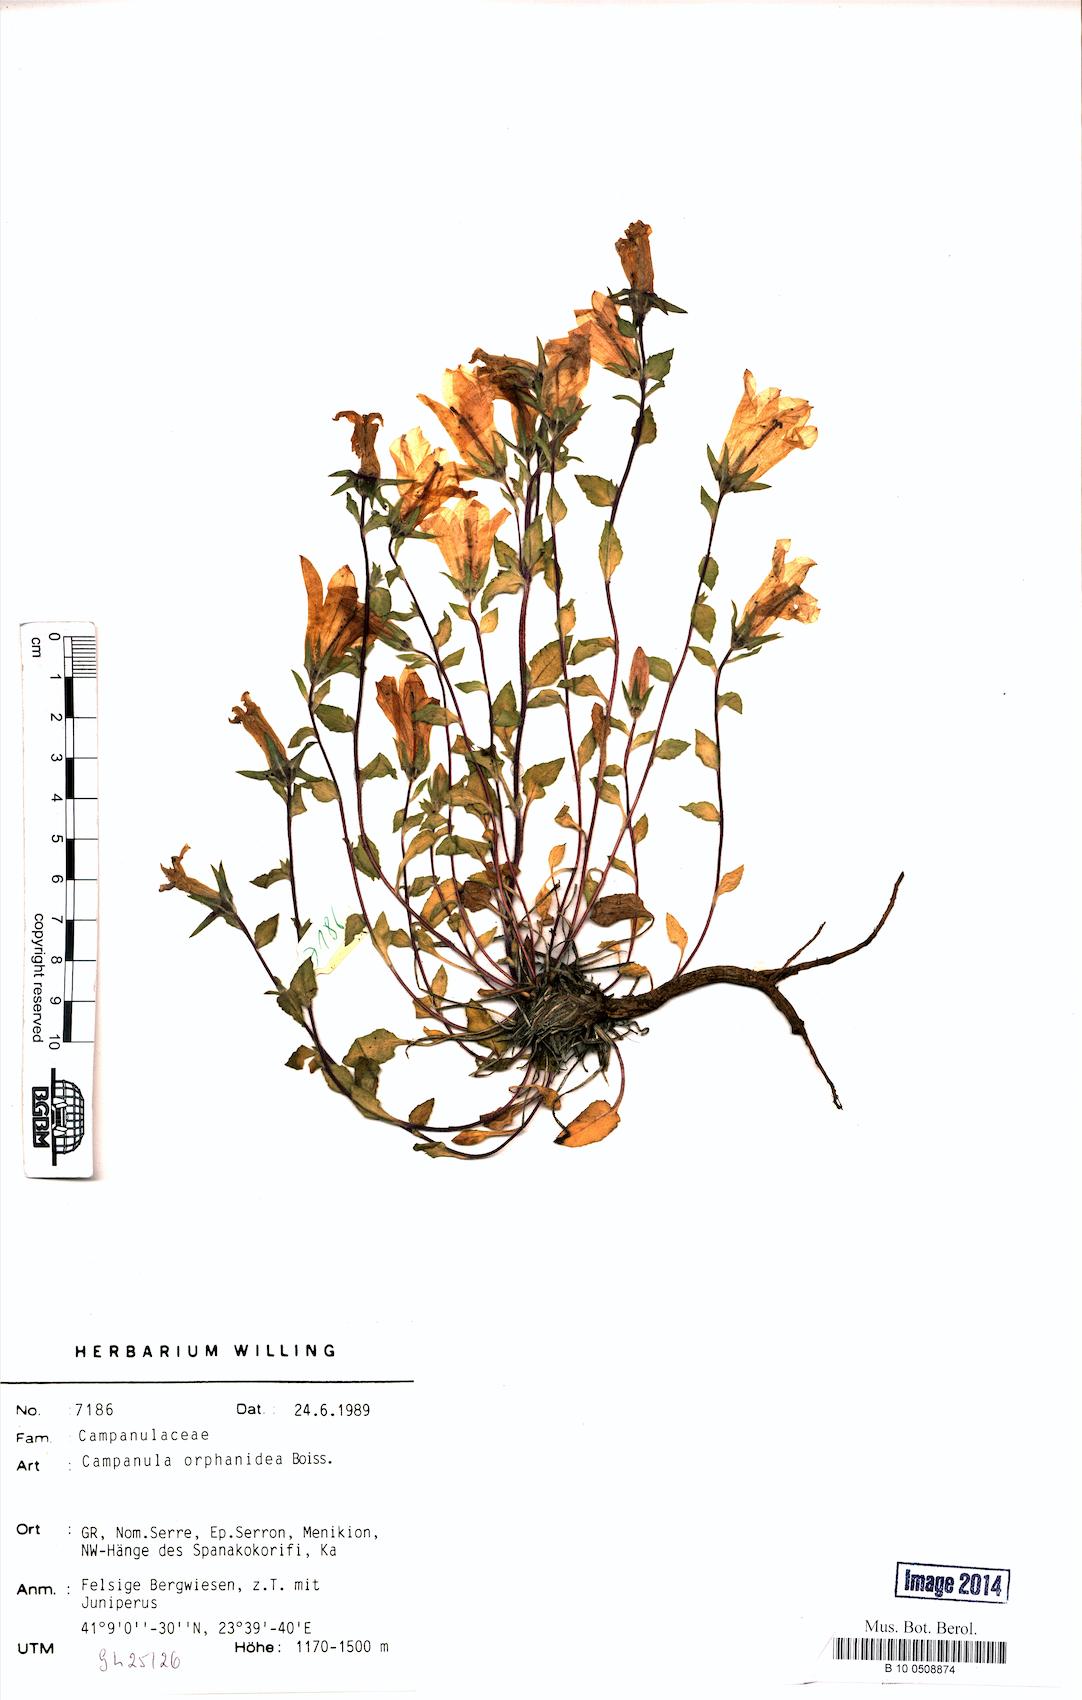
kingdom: Plantae
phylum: Tracheophyta
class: Magnoliopsida
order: Asterales
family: Campanulaceae
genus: Campanula
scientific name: Campanula orphanidea
